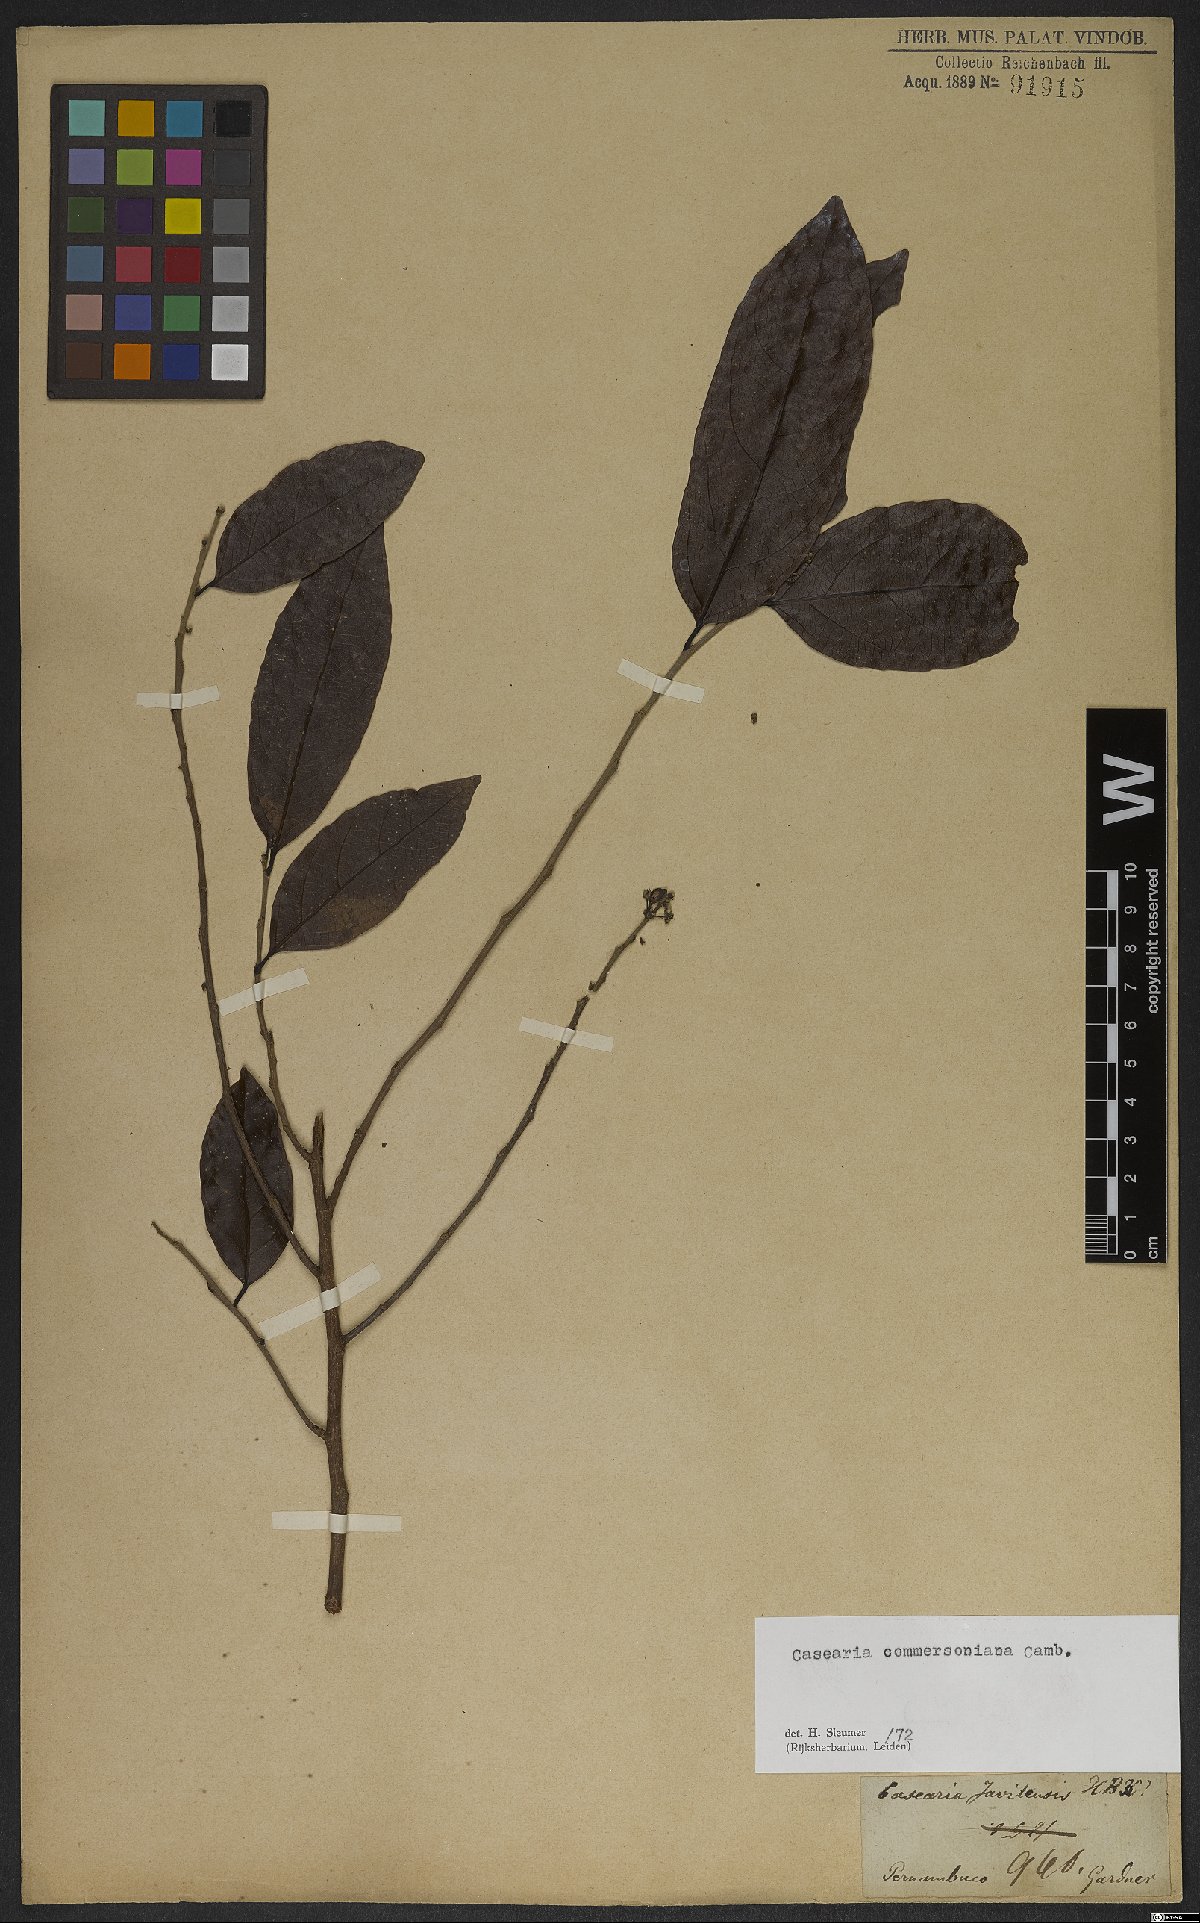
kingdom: Plantae
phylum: Tracheophyta
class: Magnoliopsida
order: Malpighiales
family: Salicaceae
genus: Piparea
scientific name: Piparea dentata
